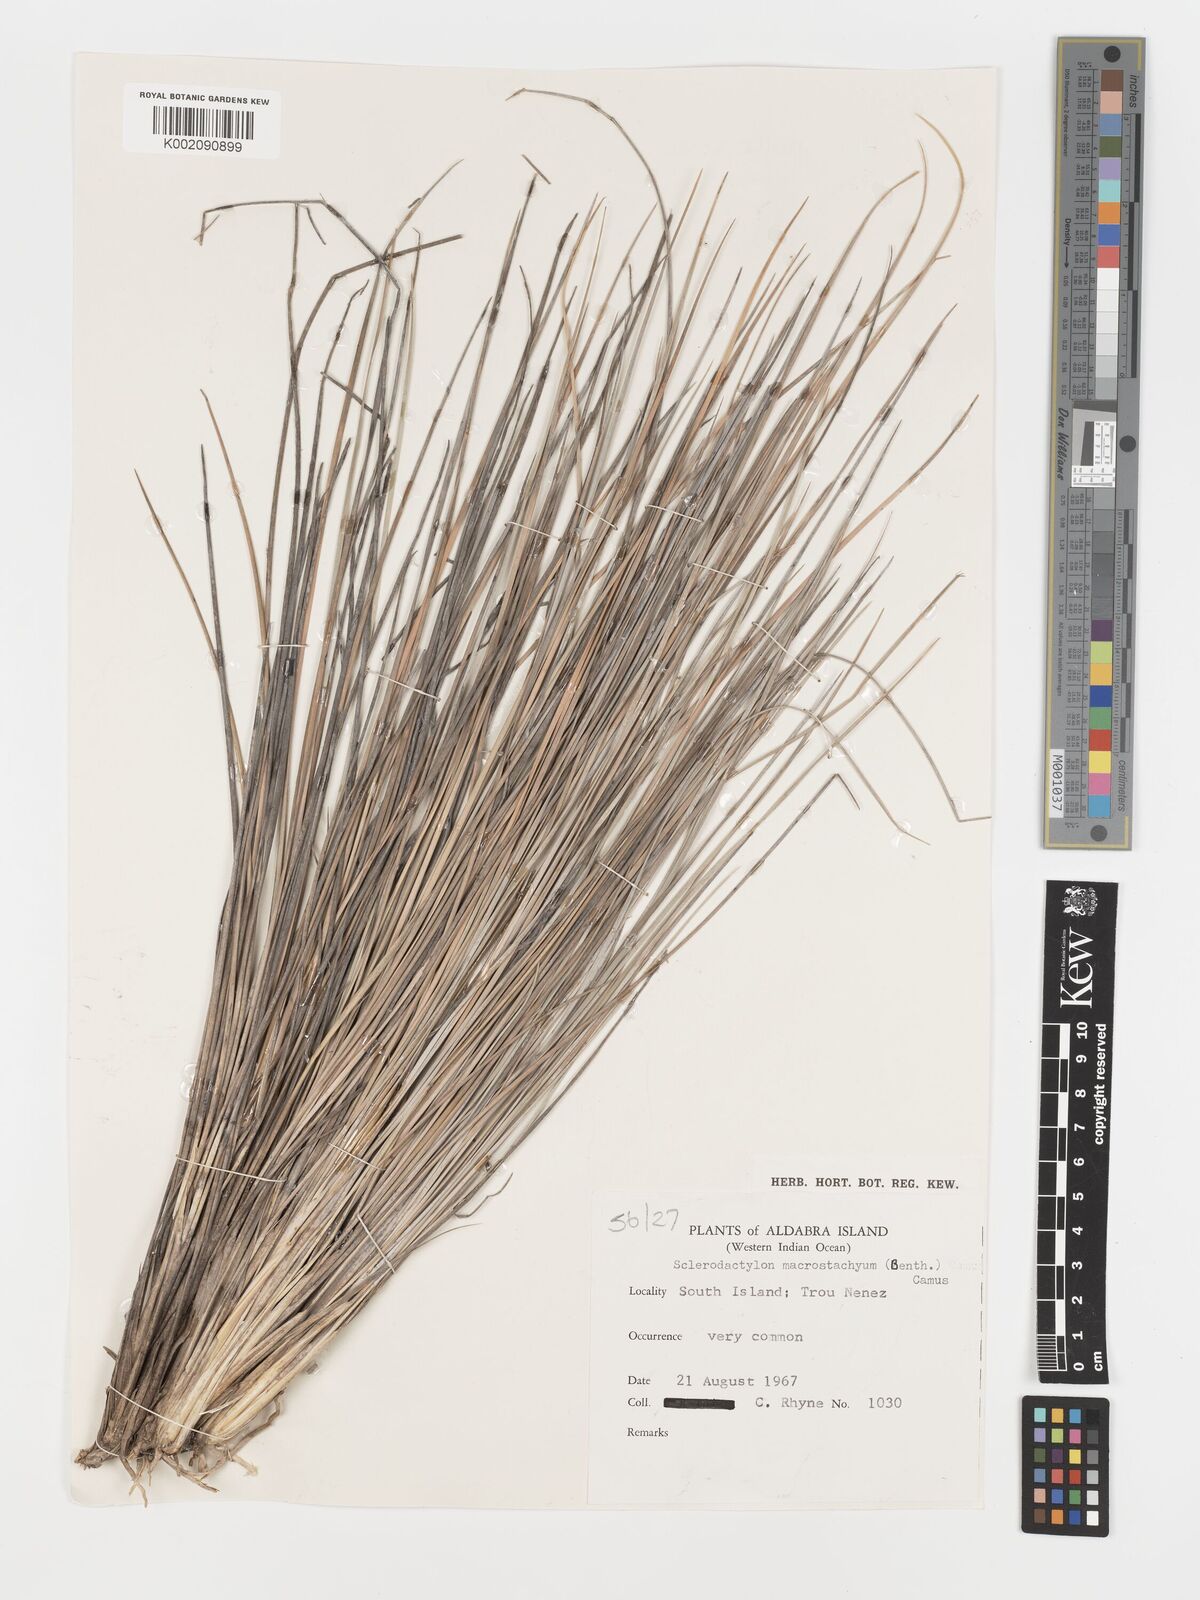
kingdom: Plantae
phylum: Tracheophyta
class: Liliopsida
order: Poales
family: Poaceae
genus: Sclerodactylon
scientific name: Sclerodactylon macrostachyum
